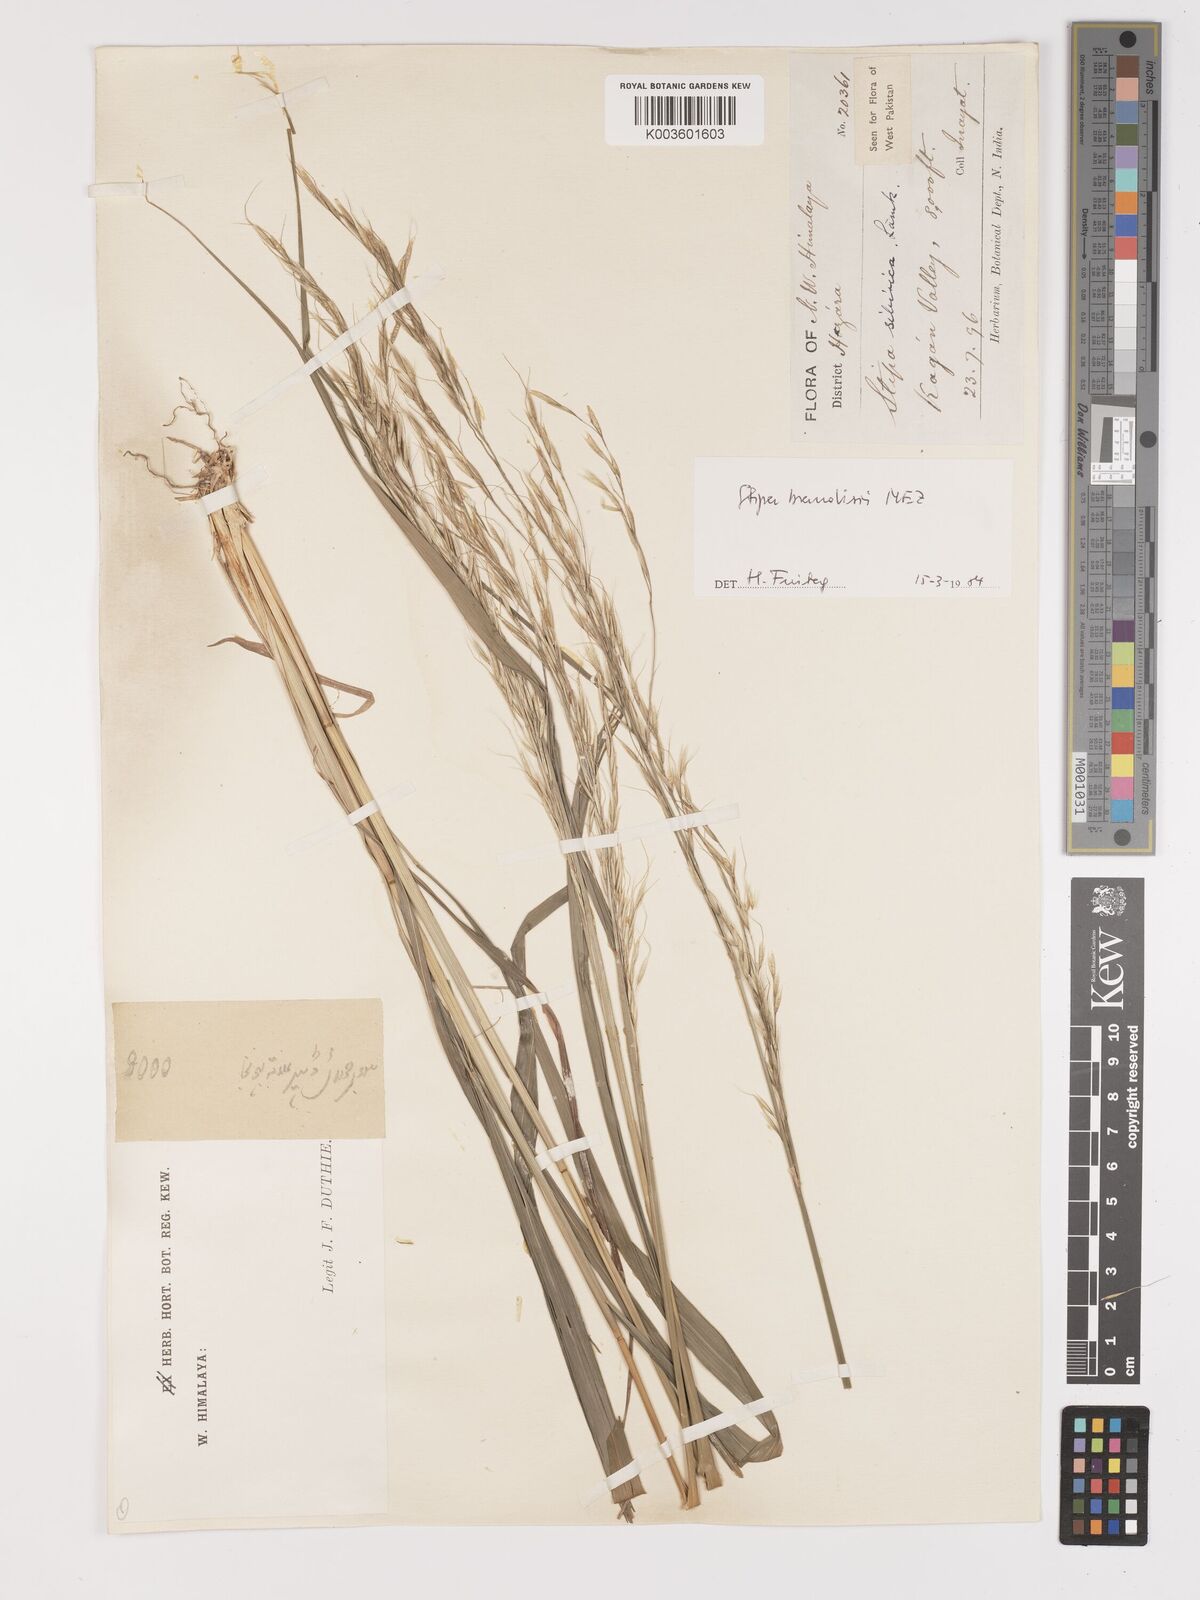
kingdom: Plantae
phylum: Tracheophyta
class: Liliopsida
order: Poales
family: Poaceae
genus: Achnatherum
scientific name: Achnatherum brandisii
